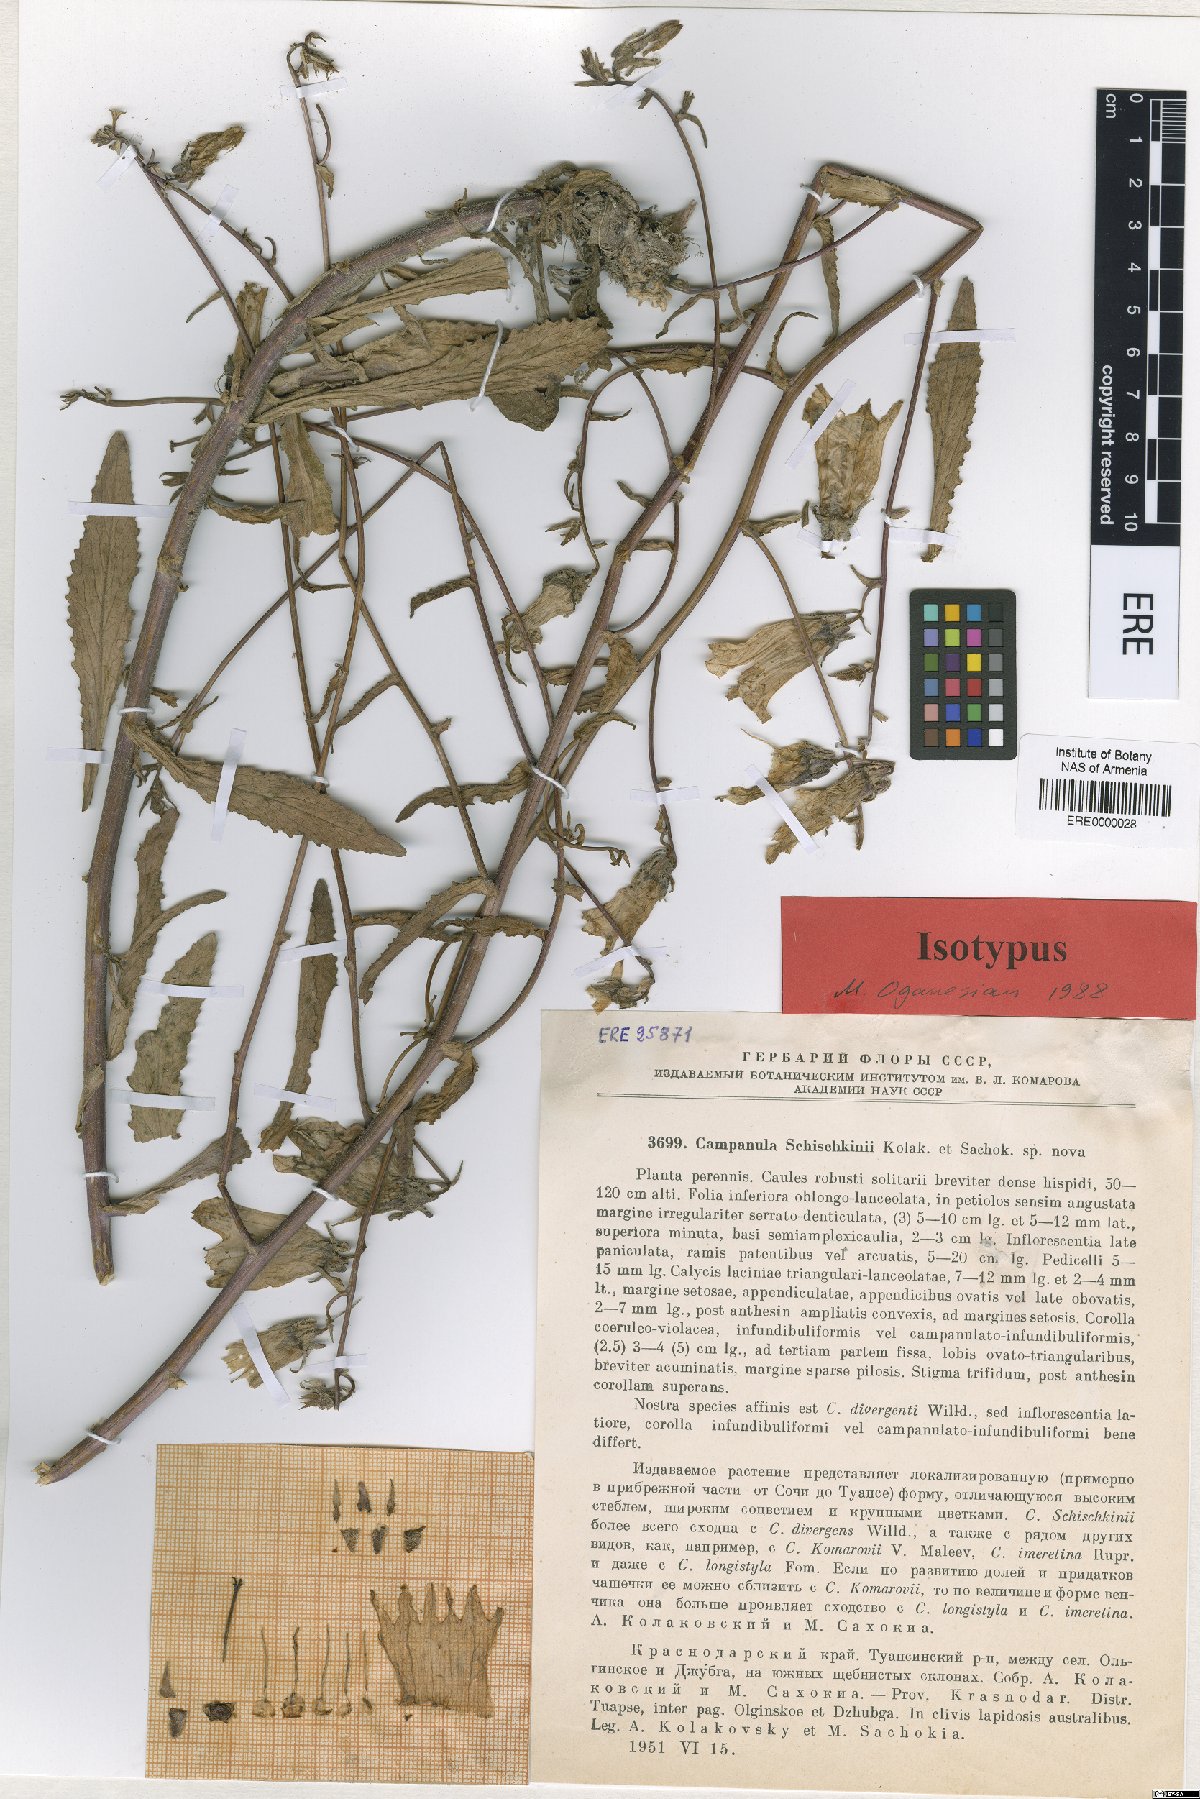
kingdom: Plantae
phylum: Tracheophyta
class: Magnoliopsida
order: Asterales
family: Campanulaceae
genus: Campanula
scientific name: Campanula longistyla
